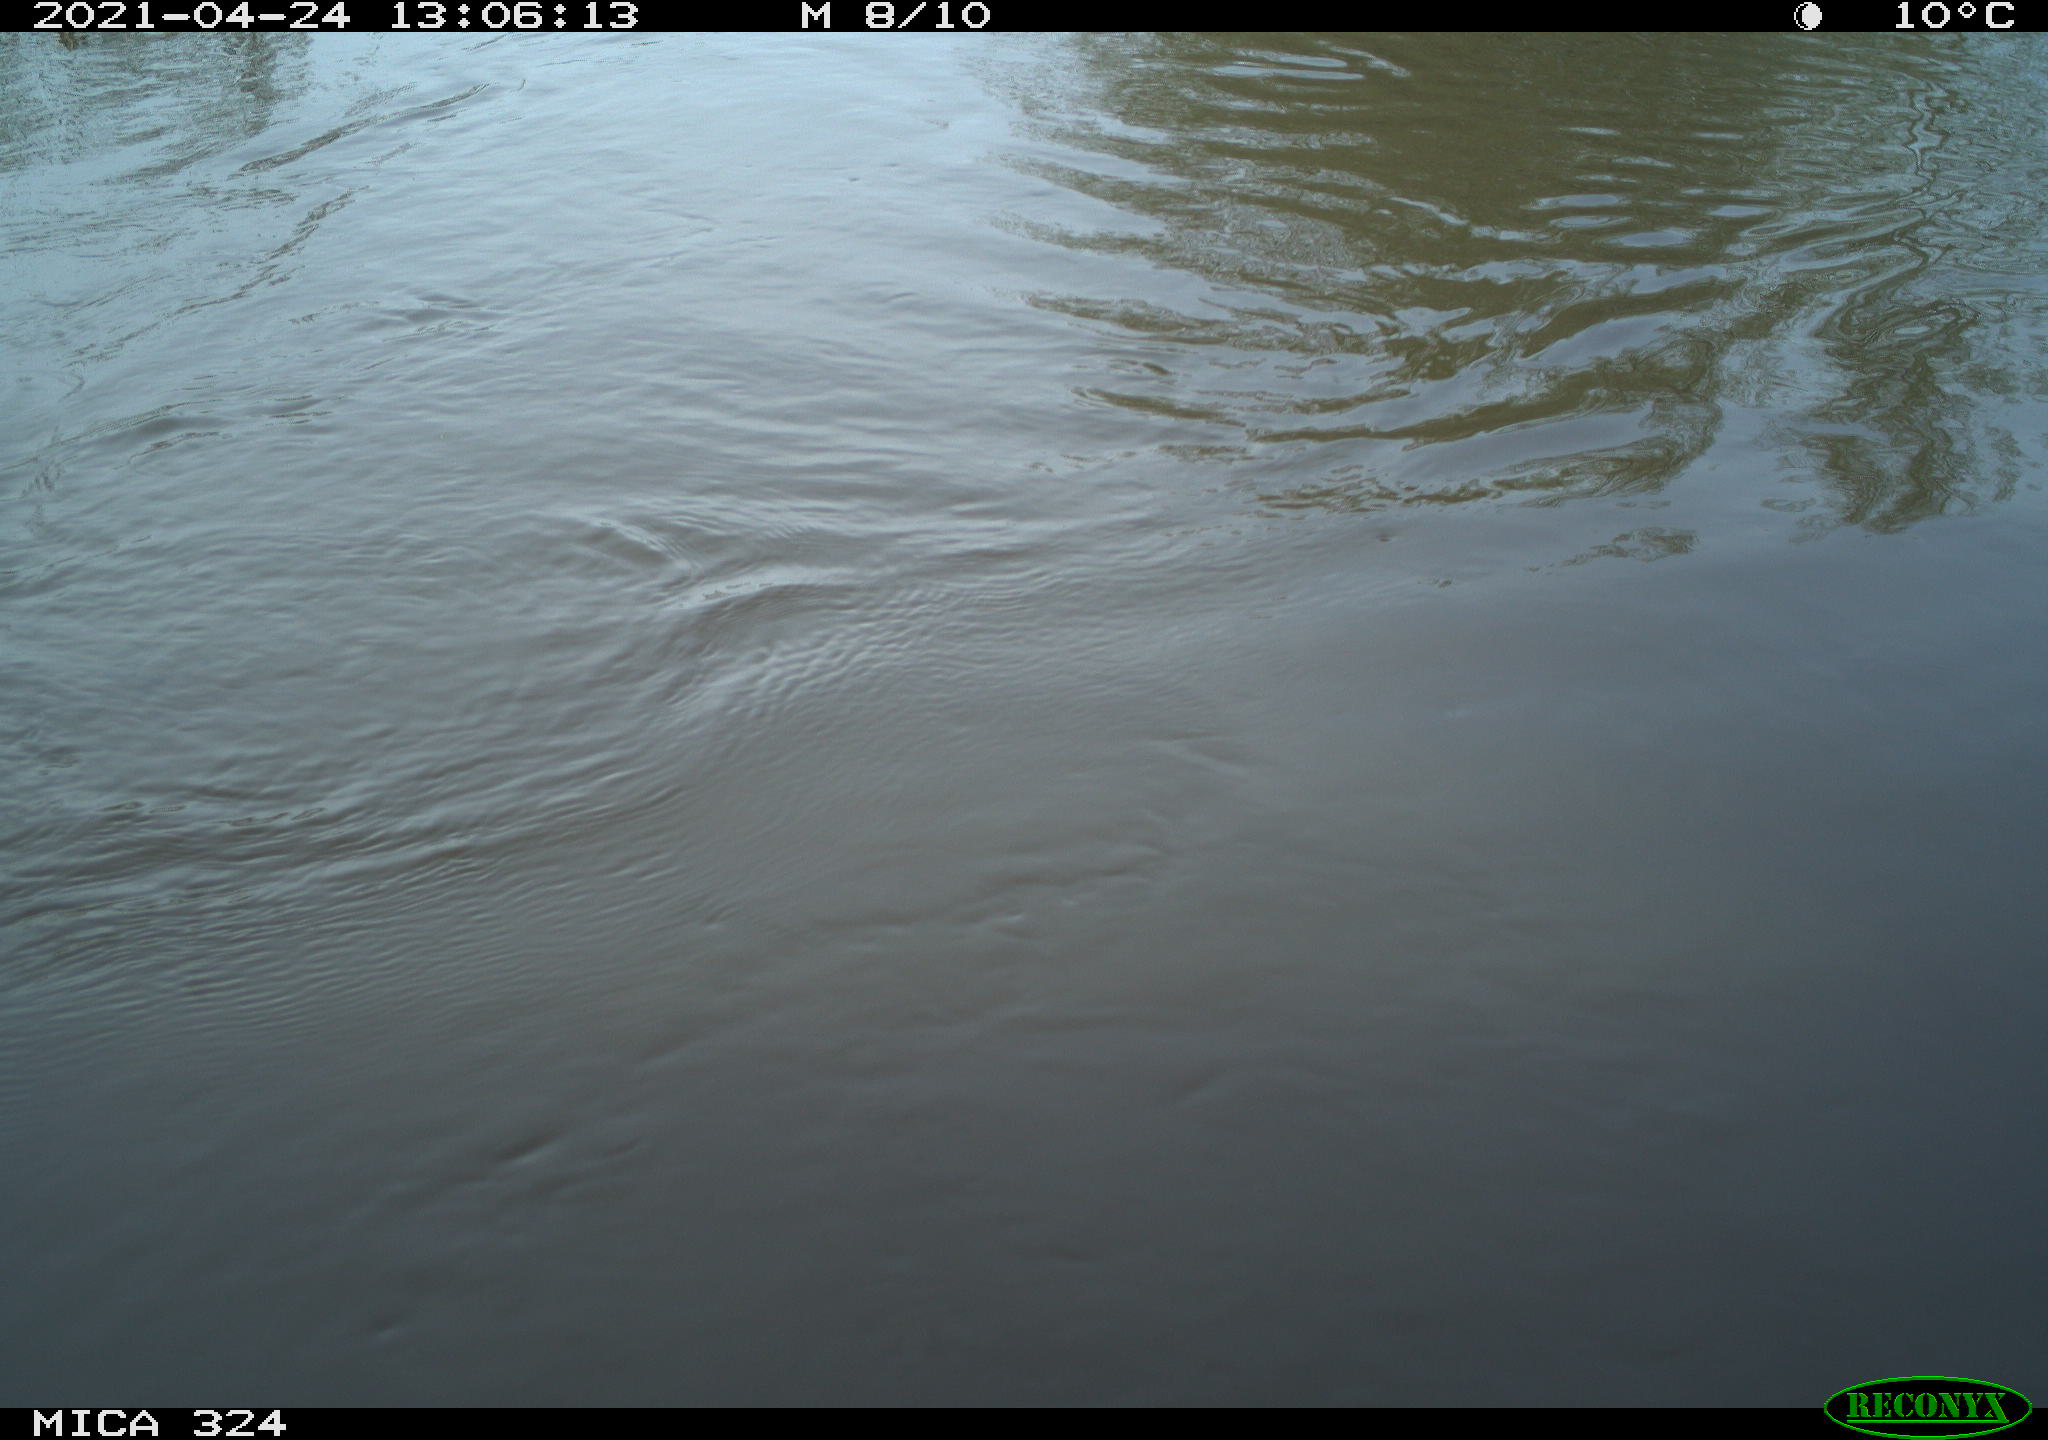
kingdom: Animalia
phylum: Chordata
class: Aves
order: Gruiformes
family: Rallidae
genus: Gallinula
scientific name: Gallinula chloropus
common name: Common moorhen
